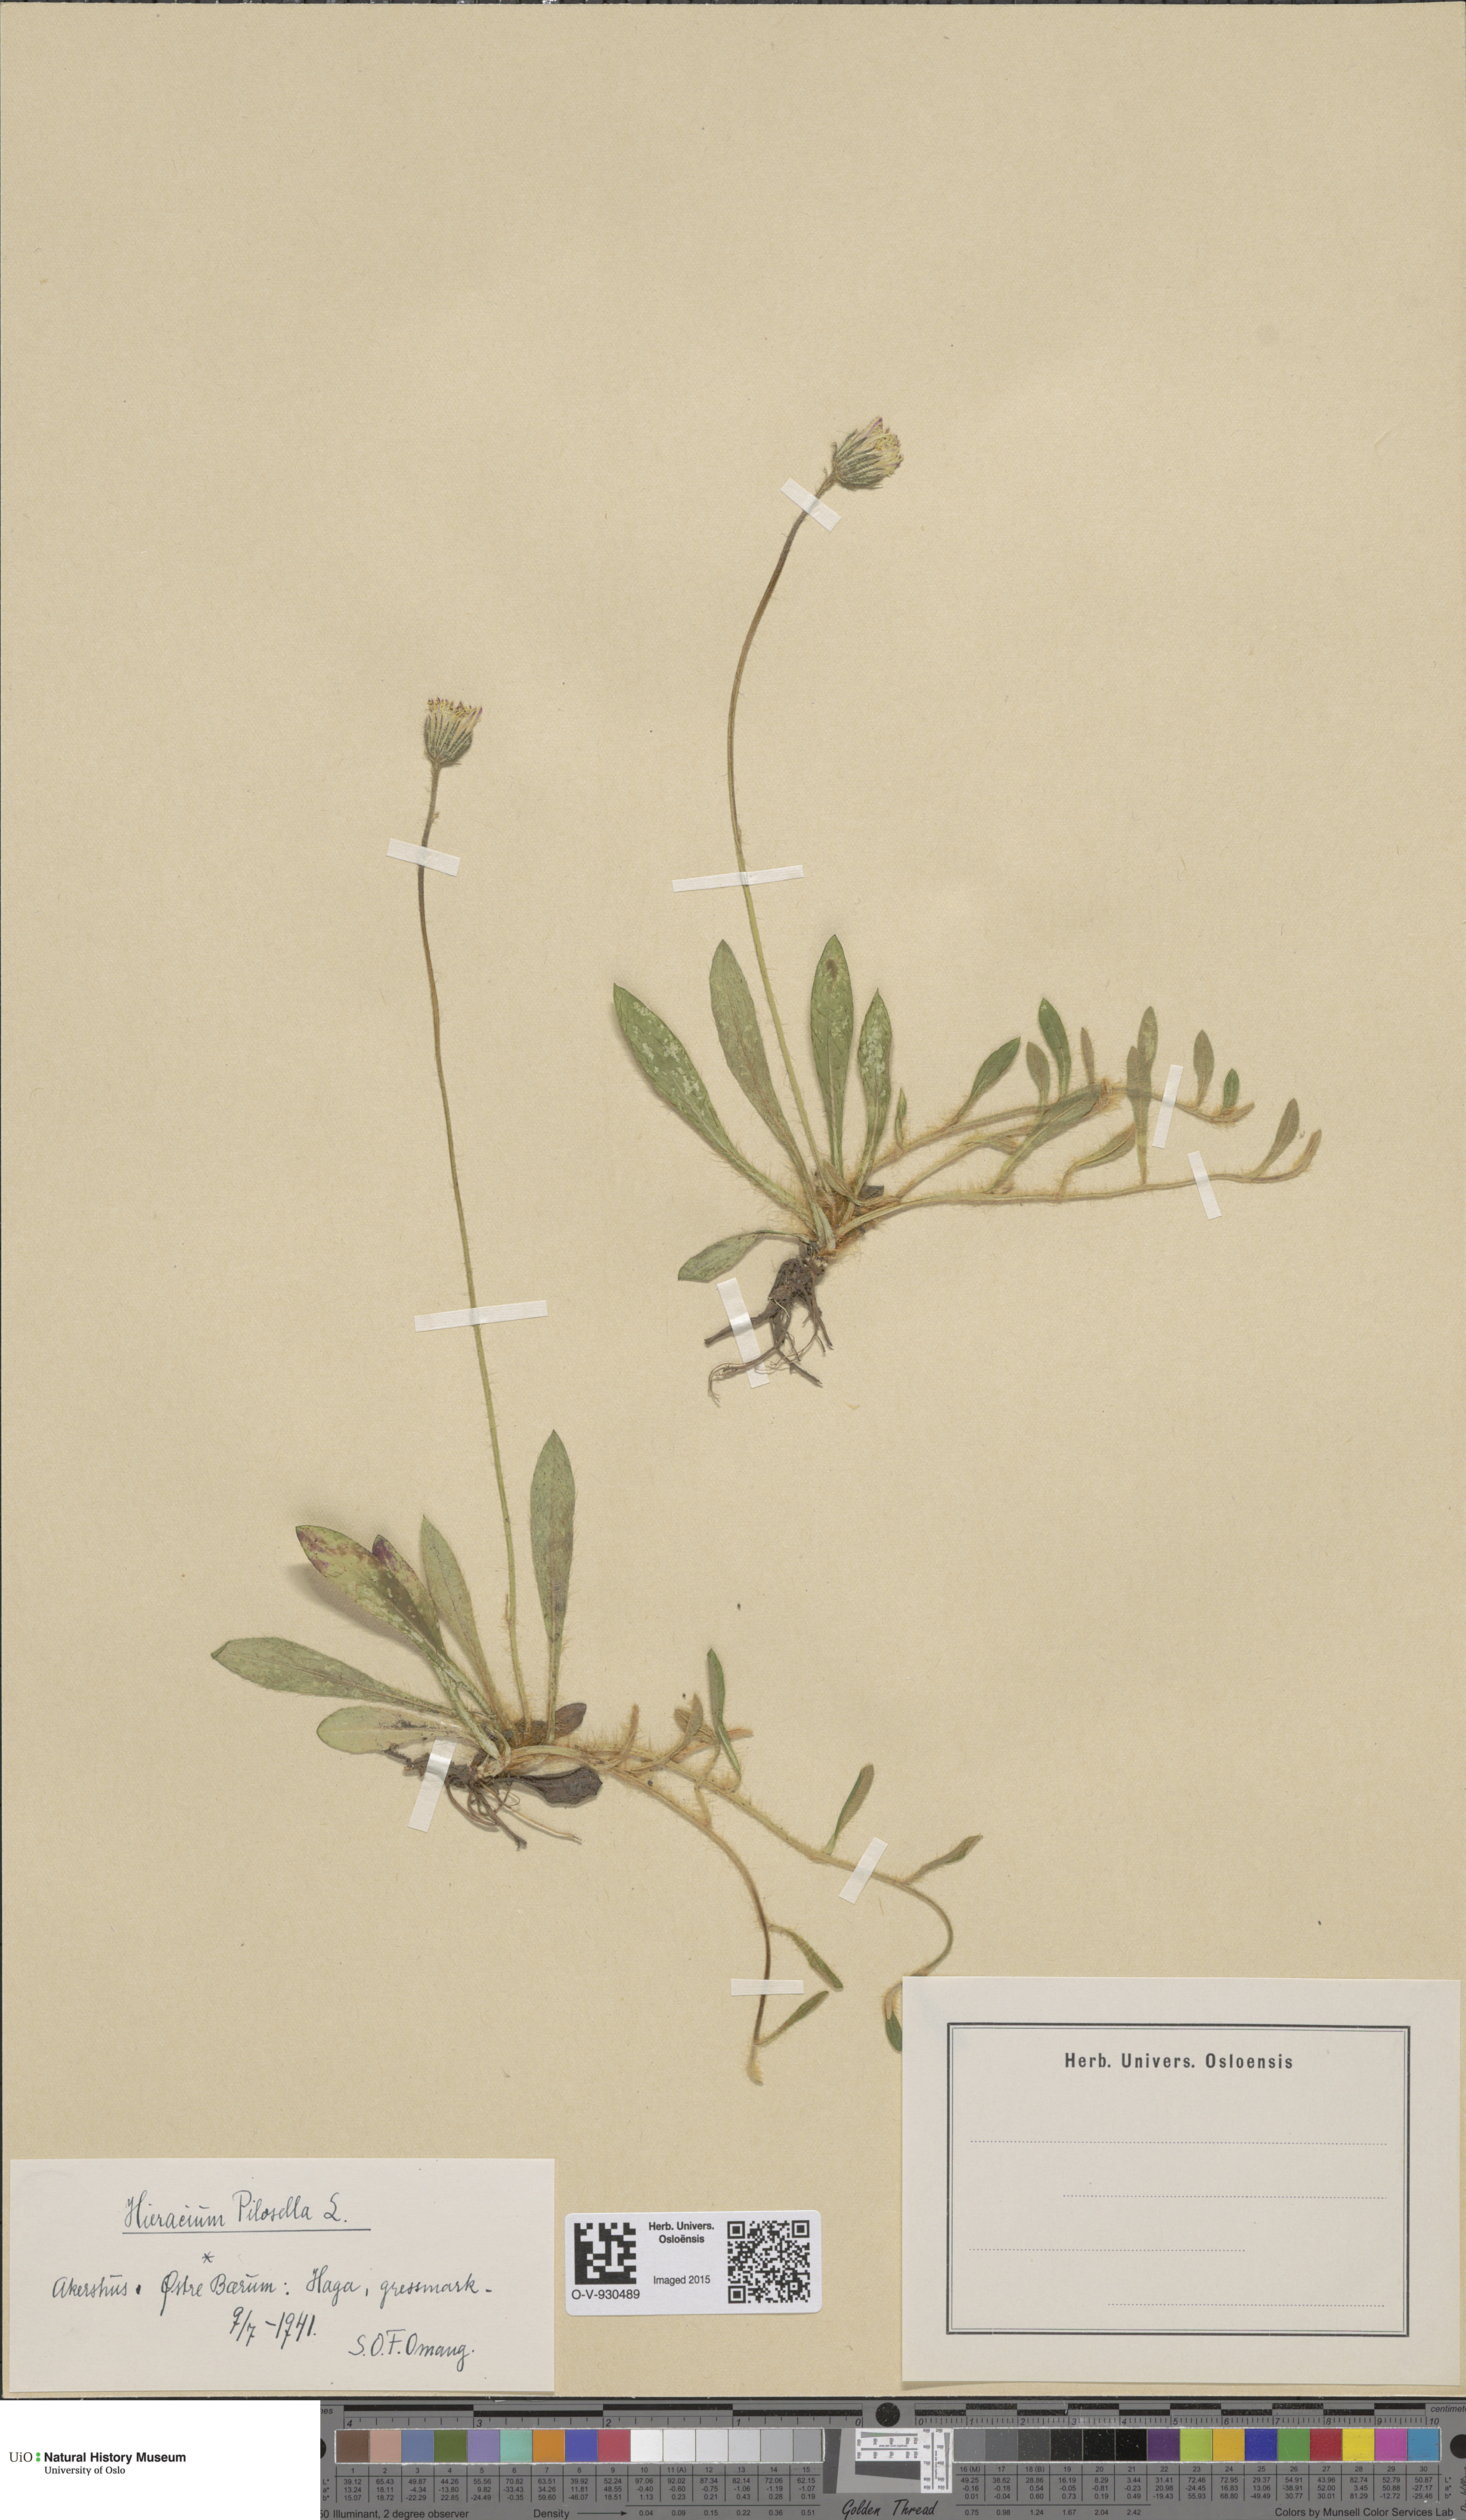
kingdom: Plantae
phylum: Tracheophyta
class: Magnoliopsida
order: Asterales
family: Asteraceae
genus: Pilosella
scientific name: Pilosella officinarum
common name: Mouse-ear hawkweed
